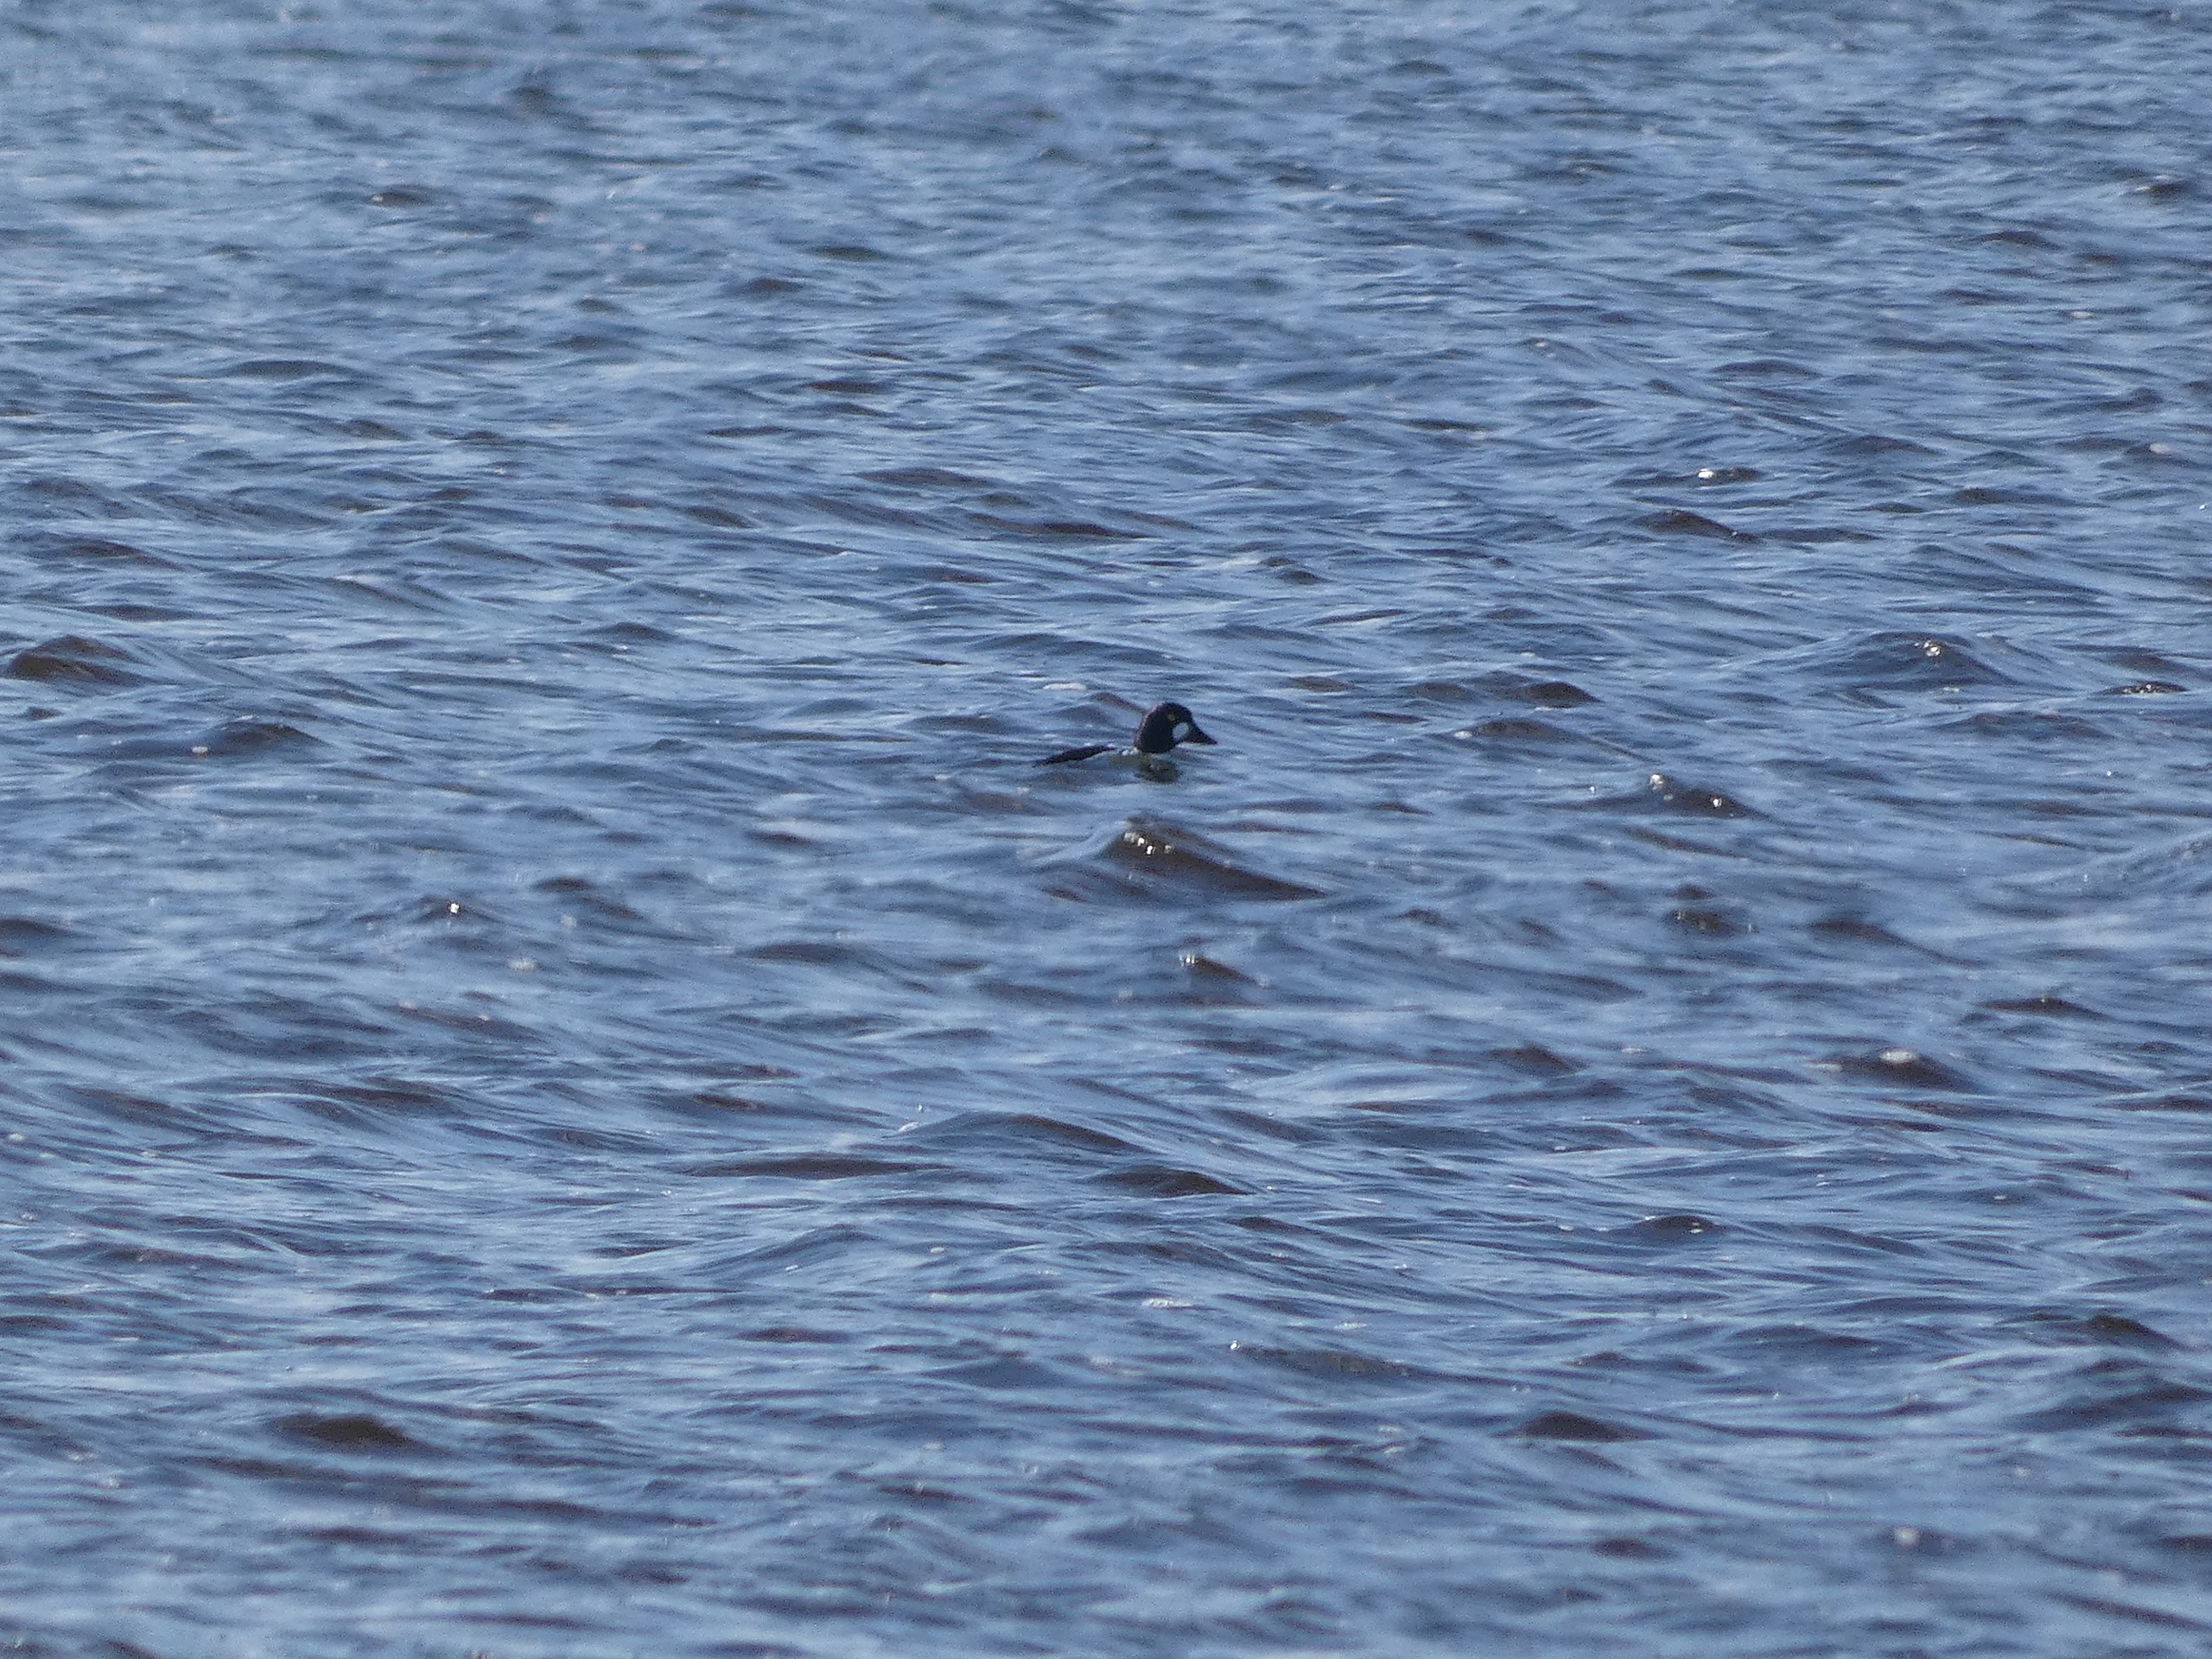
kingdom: Animalia
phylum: Chordata
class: Aves
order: Anseriformes
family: Anatidae
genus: Bucephala
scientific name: Bucephala clangula
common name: Hvinand
